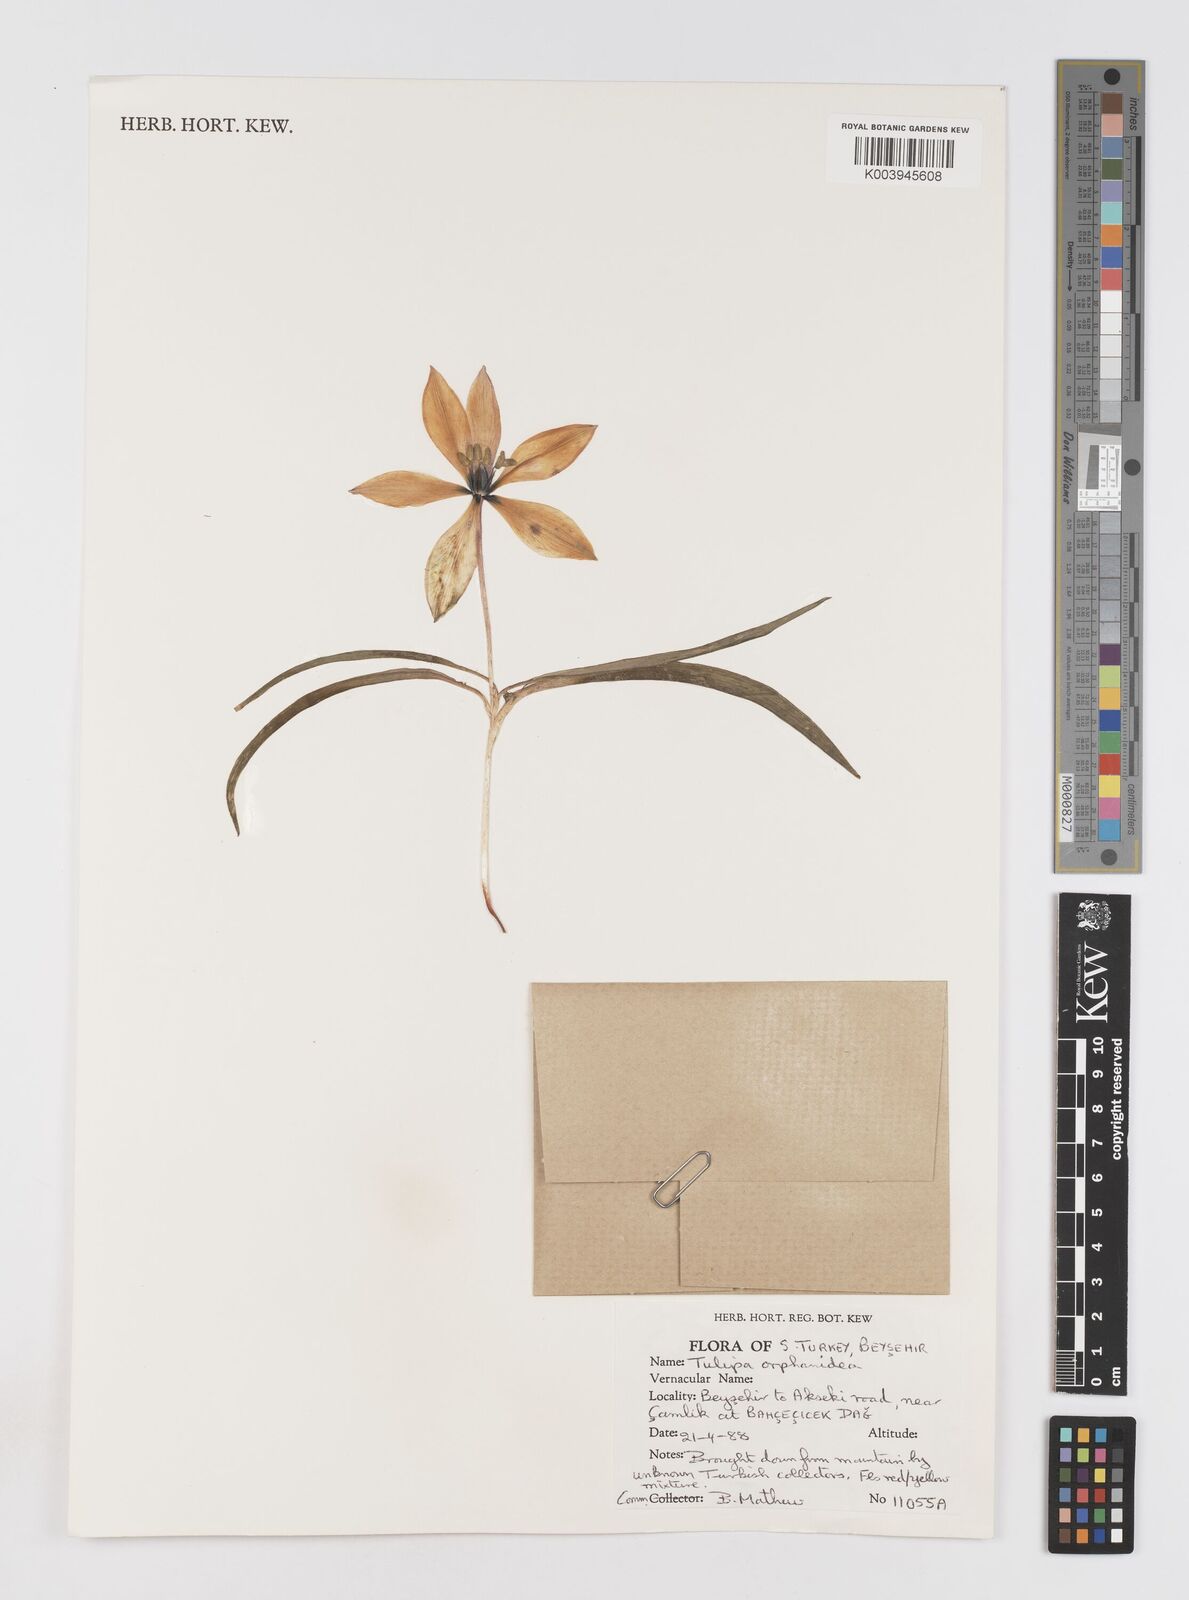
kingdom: Plantae
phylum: Tracheophyta
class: Liliopsida
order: Liliales
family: Liliaceae
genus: Tulipa
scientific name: Tulipa orphanidea
